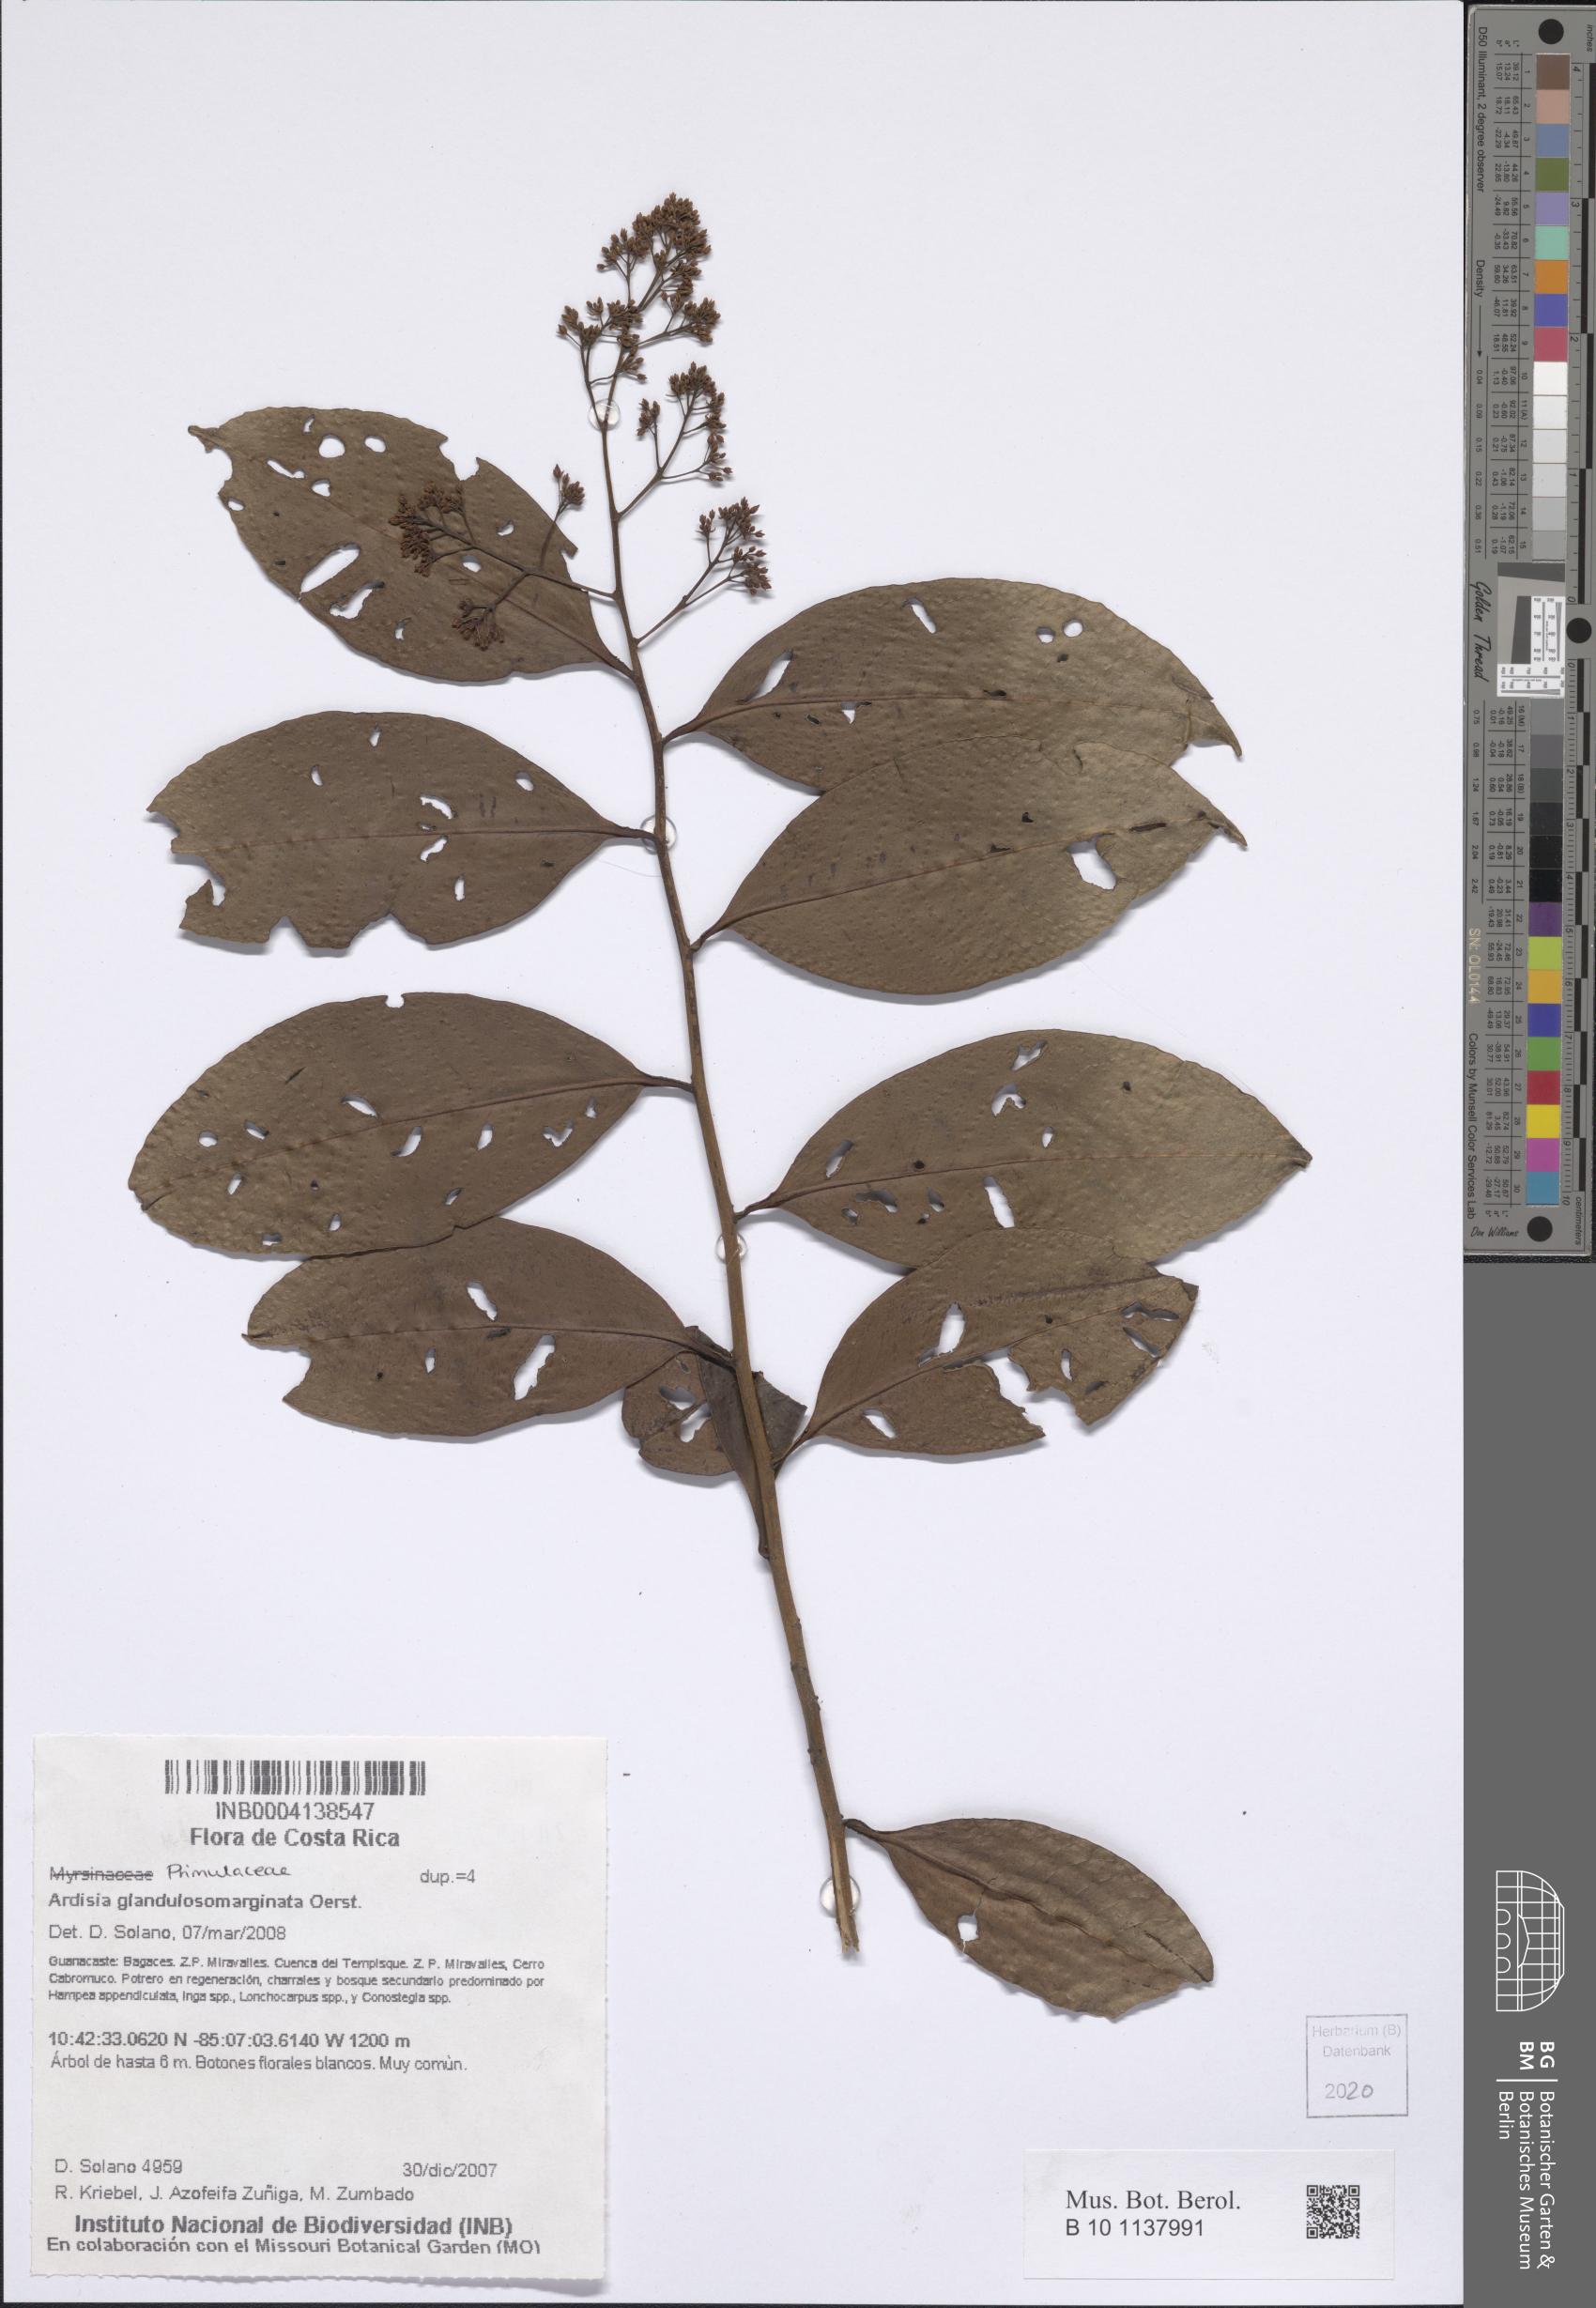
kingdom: Plantae
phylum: Tracheophyta
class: Magnoliopsida
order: Ericales
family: Primulaceae
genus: Ardisia
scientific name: Ardisia glandulosomarginata
